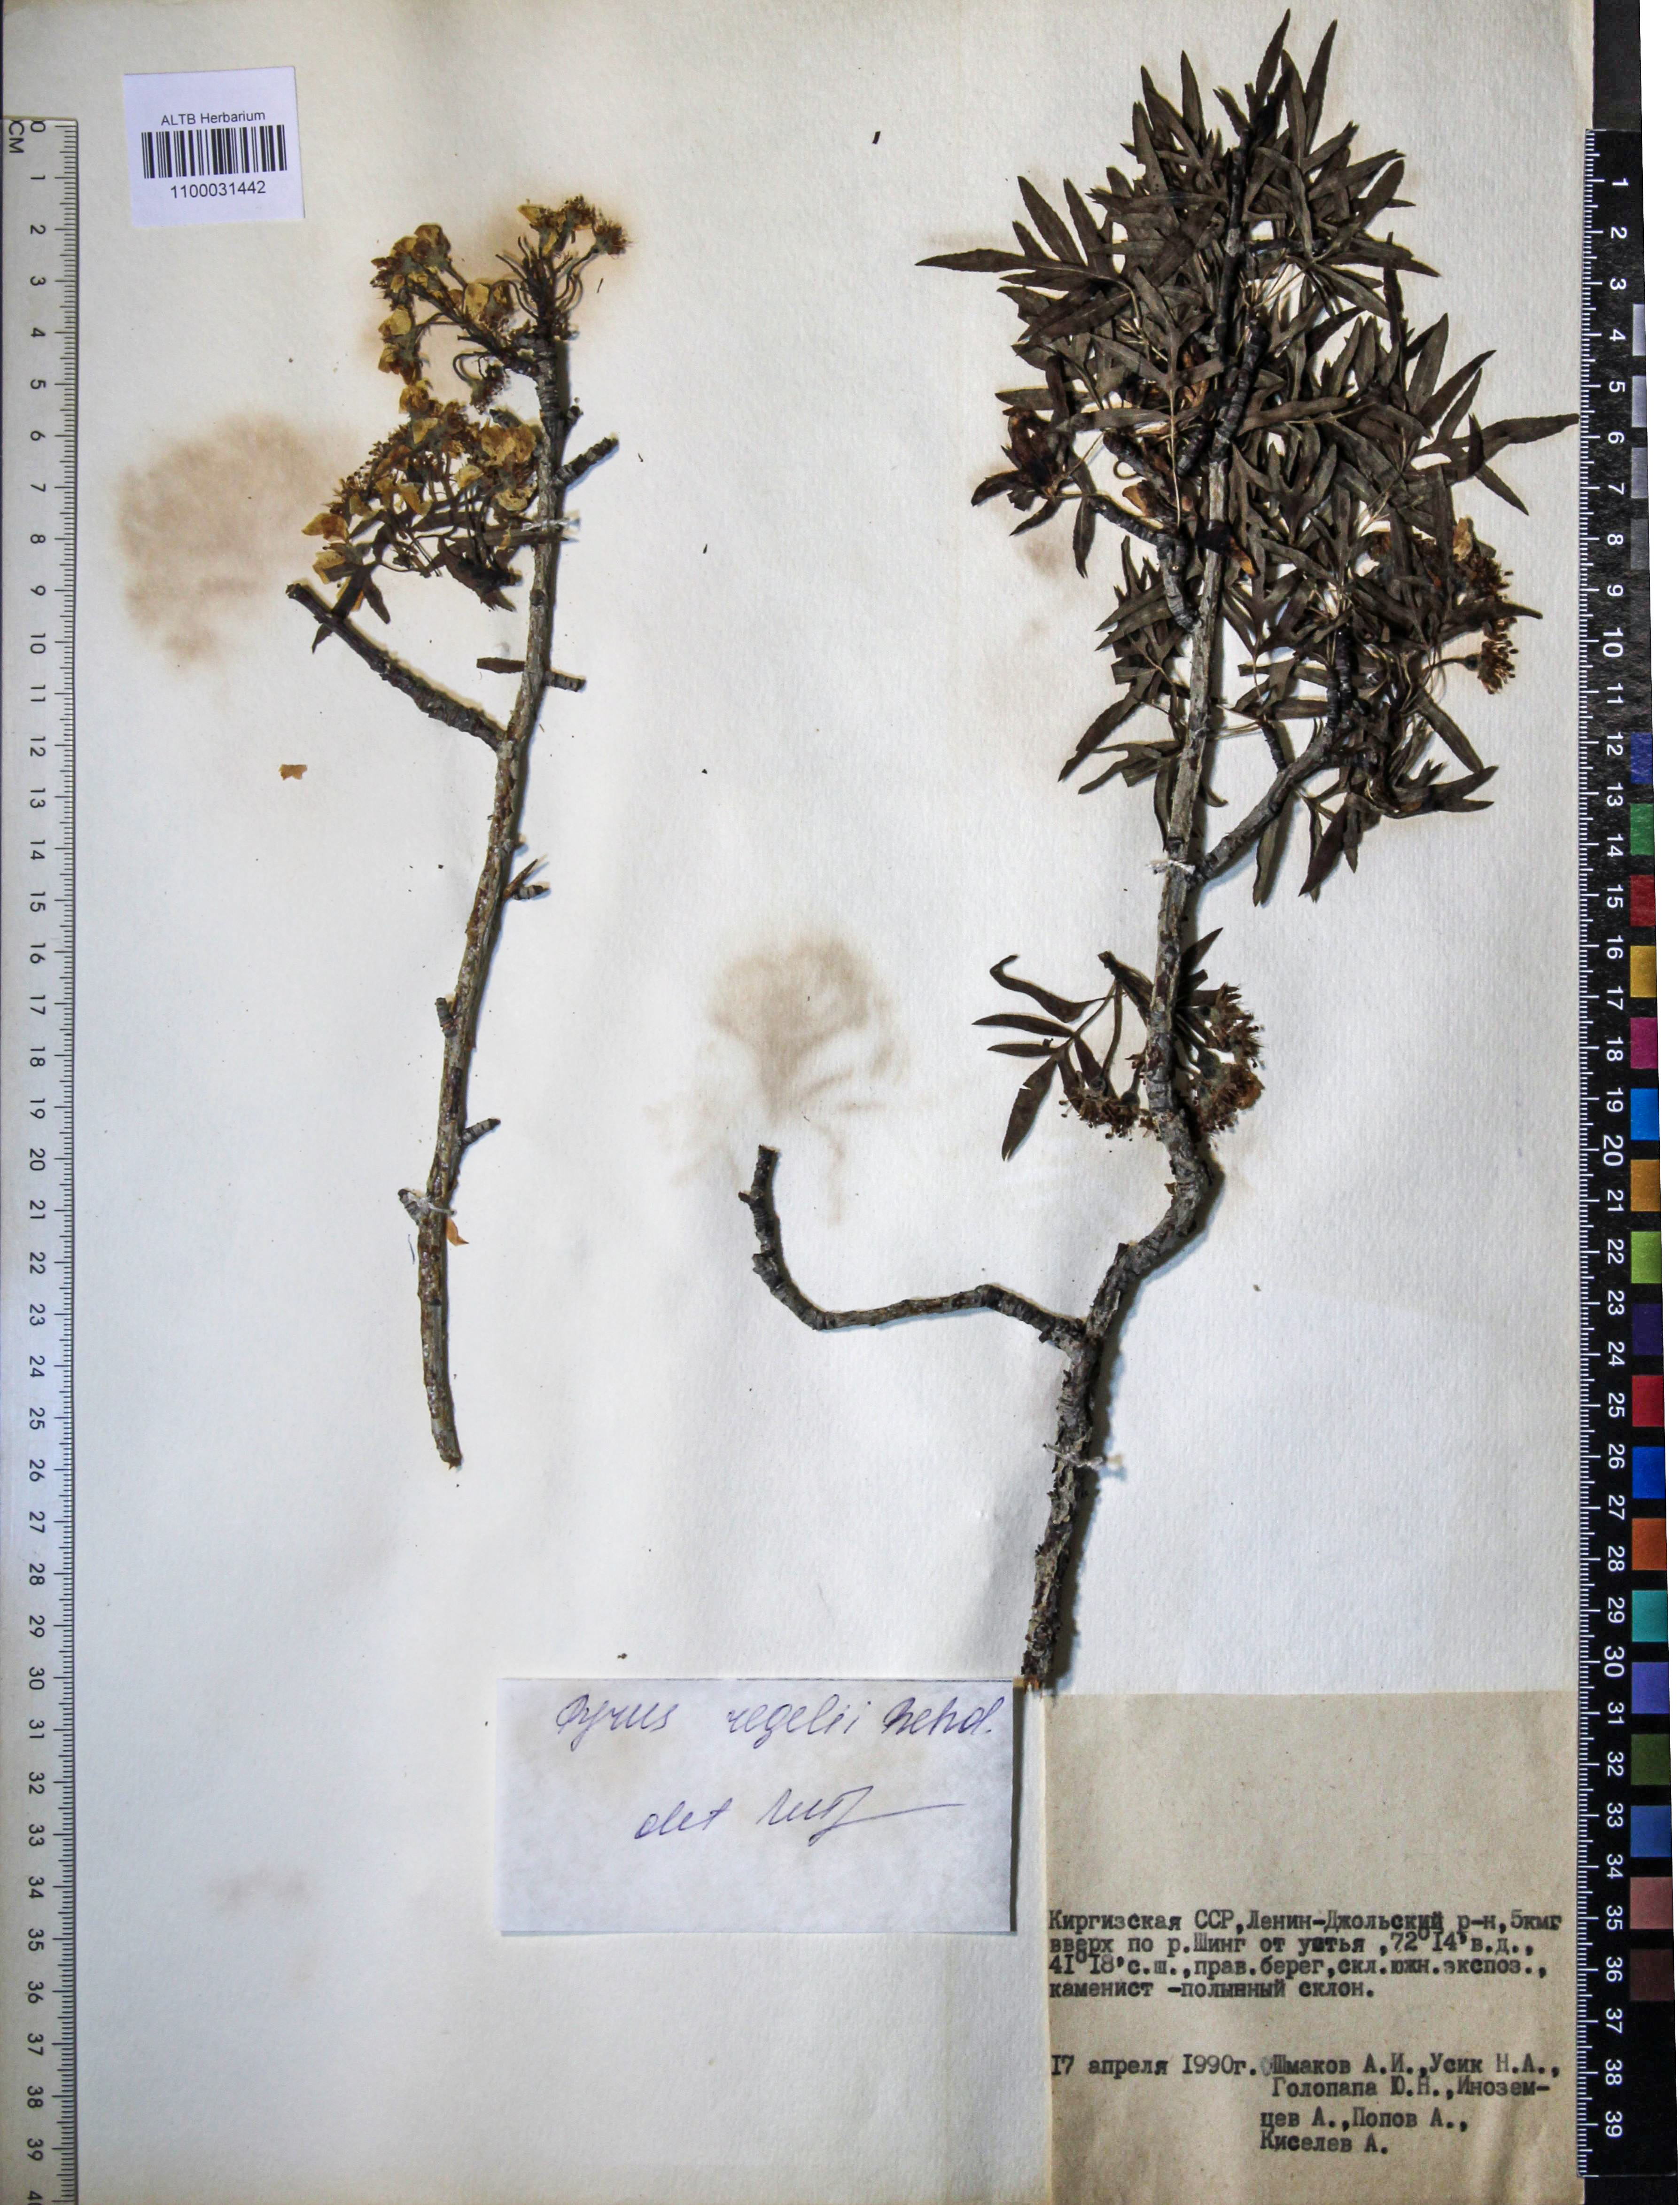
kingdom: Plantae
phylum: Tracheophyta
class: Magnoliopsida
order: Rosales
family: Rosaceae
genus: Pyrus
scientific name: Pyrus regelii
